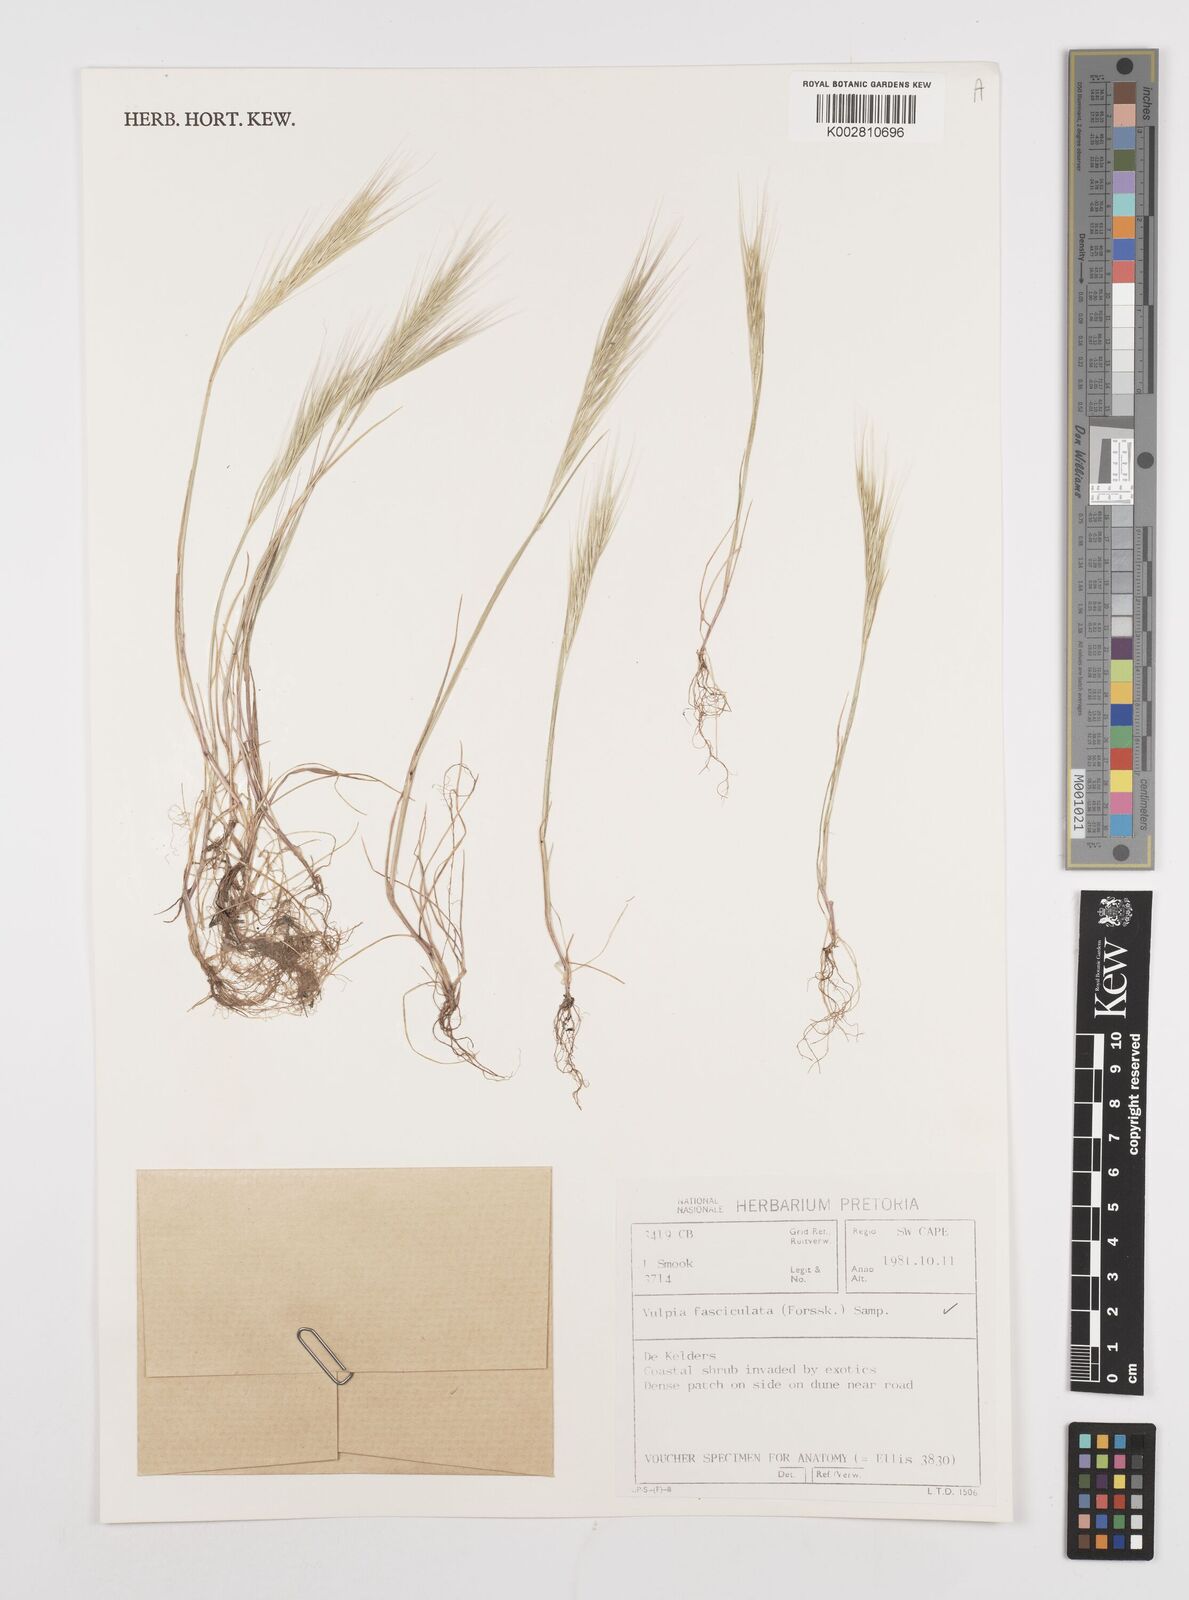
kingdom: Plantae
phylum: Tracheophyta
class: Liliopsida
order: Poales
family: Poaceae
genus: Festuca
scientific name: Festuca fasciculata
